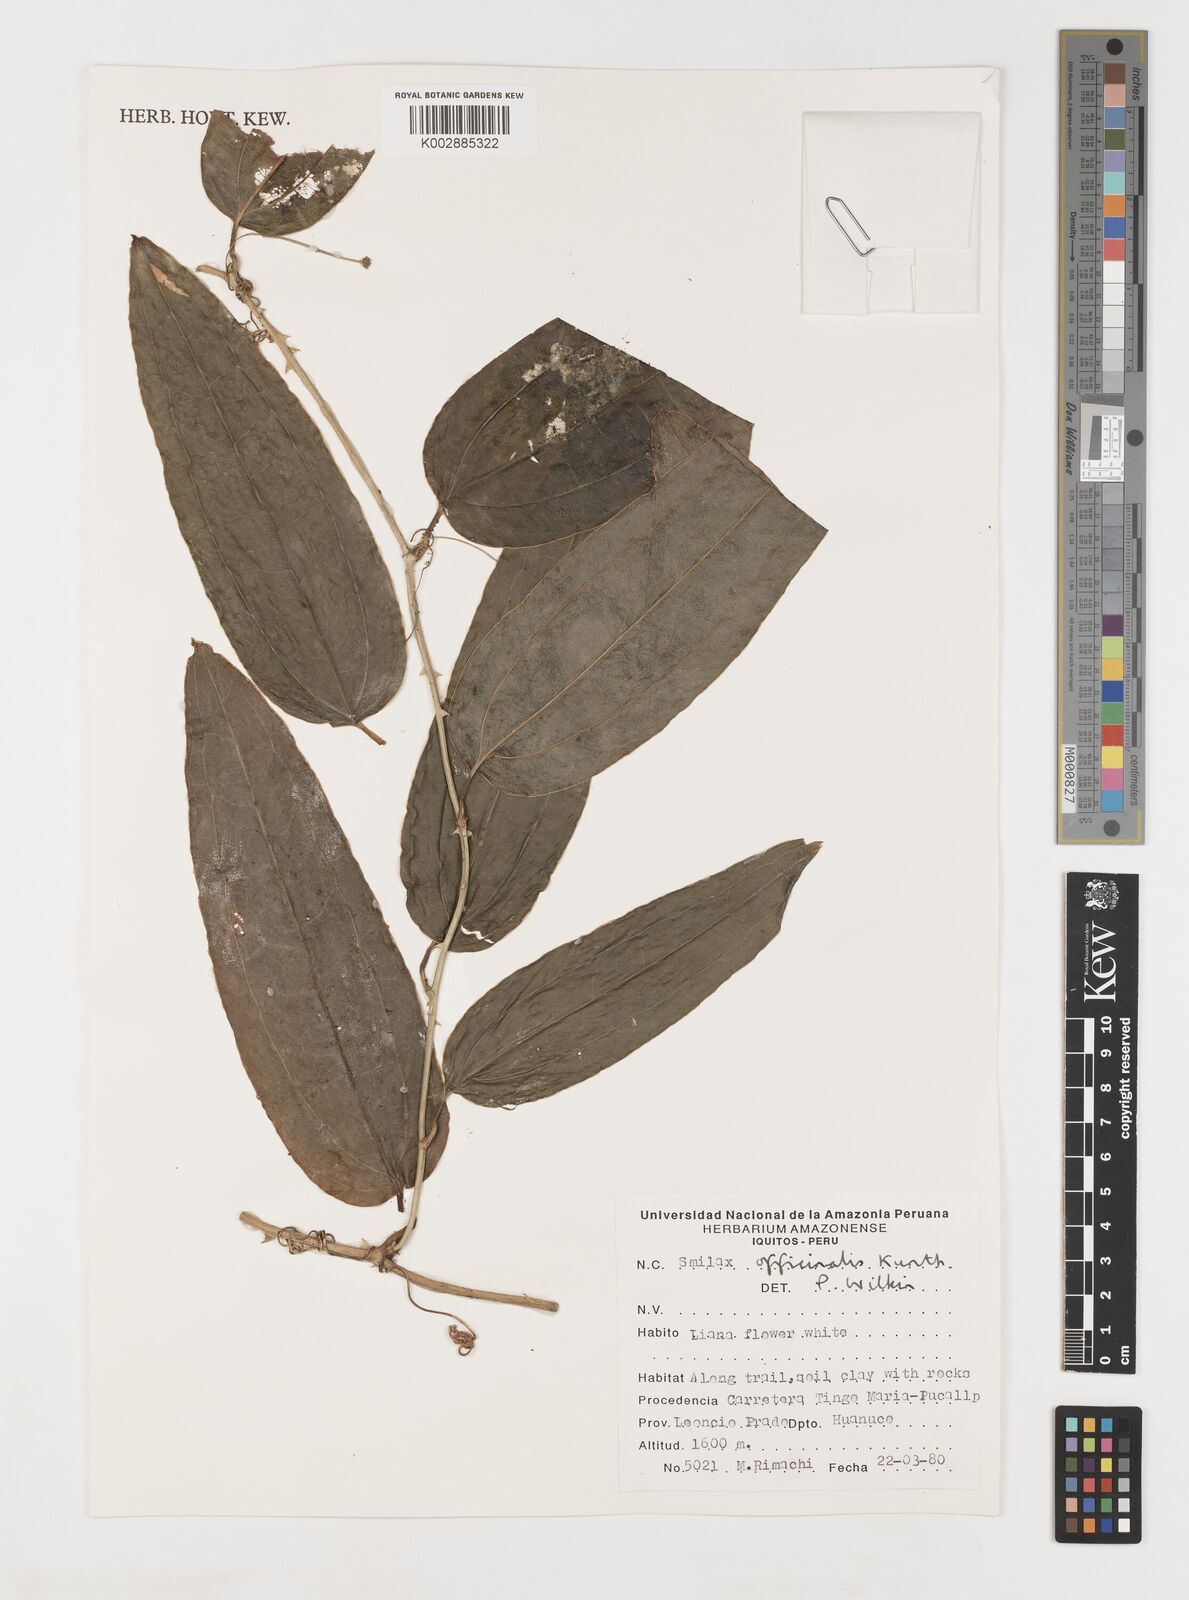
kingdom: Plantae
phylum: Tracheophyta
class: Liliopsida
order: Liliales
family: Smilacaceae
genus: Smilax
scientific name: Smilax officinalis
